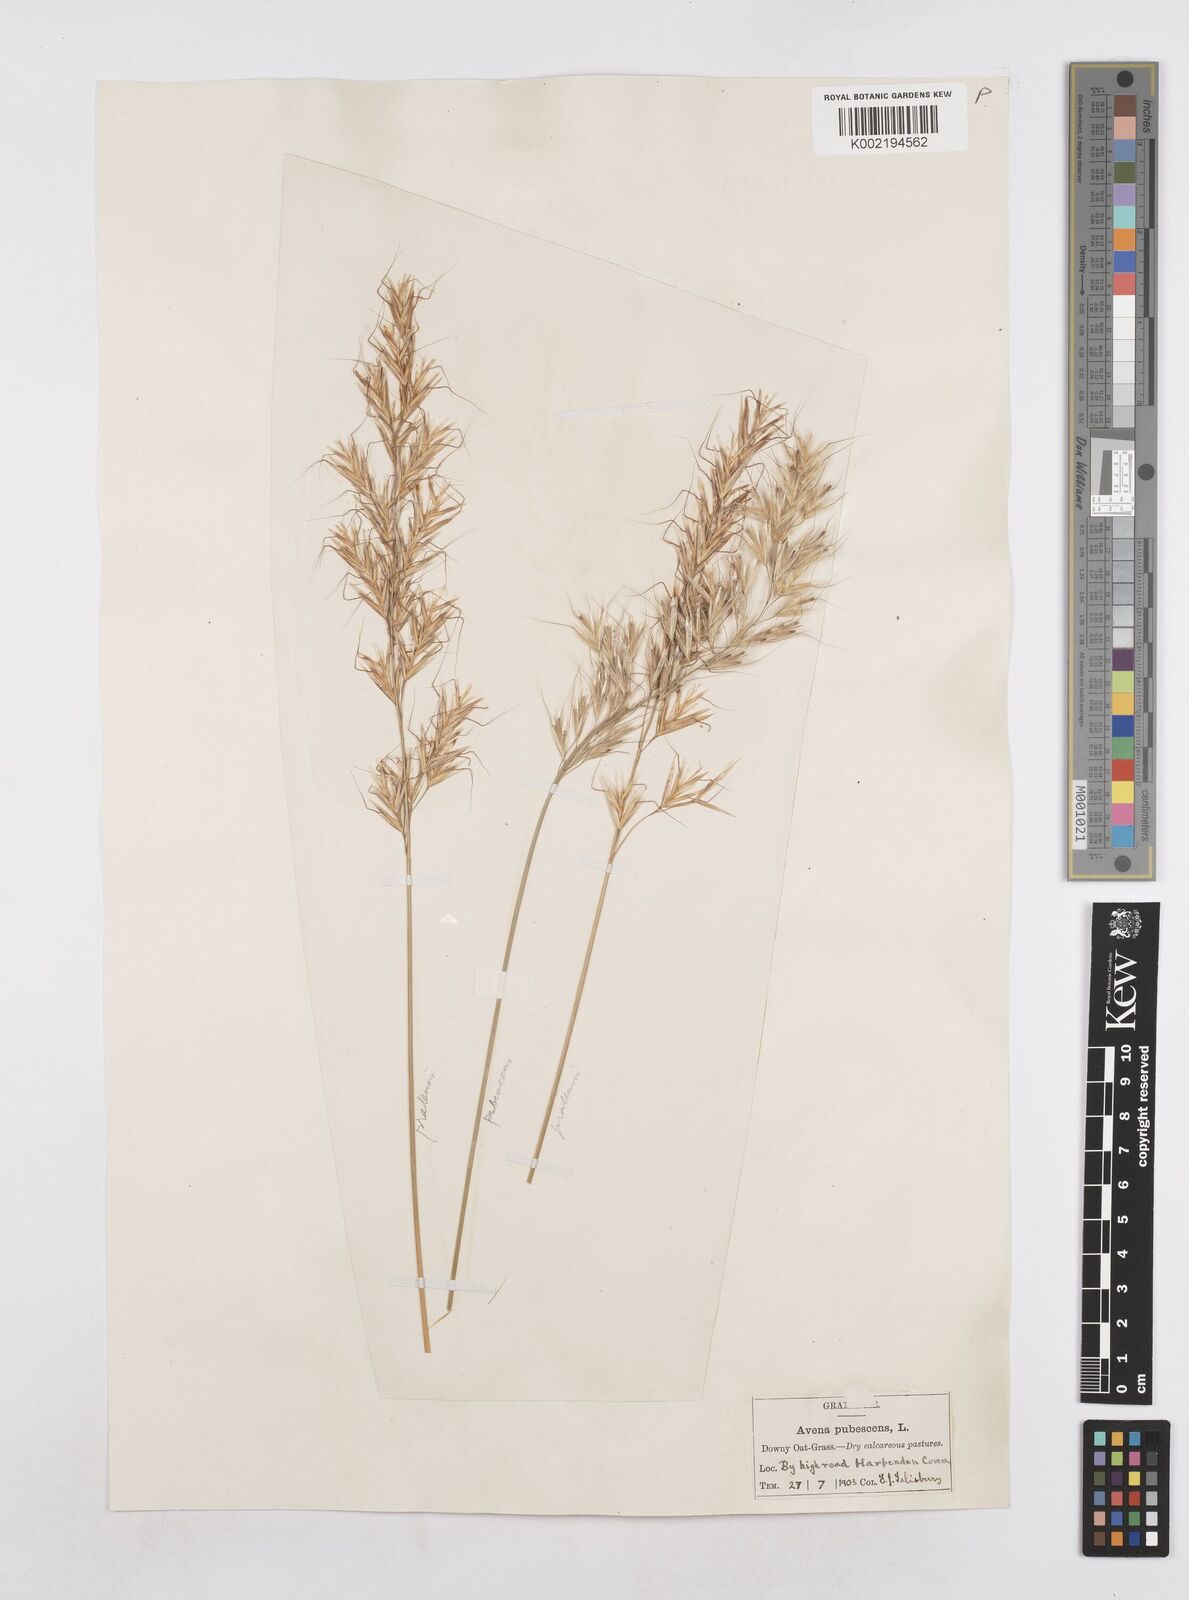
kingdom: Plantae
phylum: Tracheophyta
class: Liliopsida
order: Poales
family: Poaceae
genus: Avenula
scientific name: Avenula pubescens
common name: Downy alpine oatgrass
